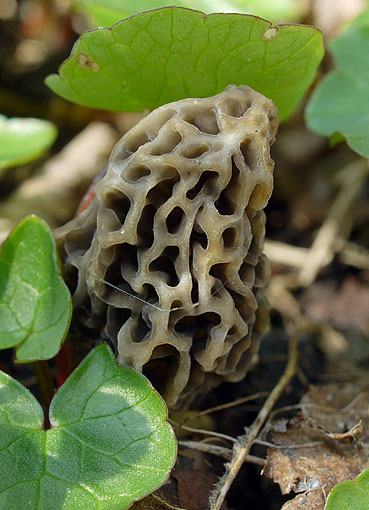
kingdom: Fungi
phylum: Ascomycota
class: Pezizomycetes
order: Pezizales
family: Morchellaceae
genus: Morchella
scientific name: Morchella esculenta
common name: spiselig morkel
